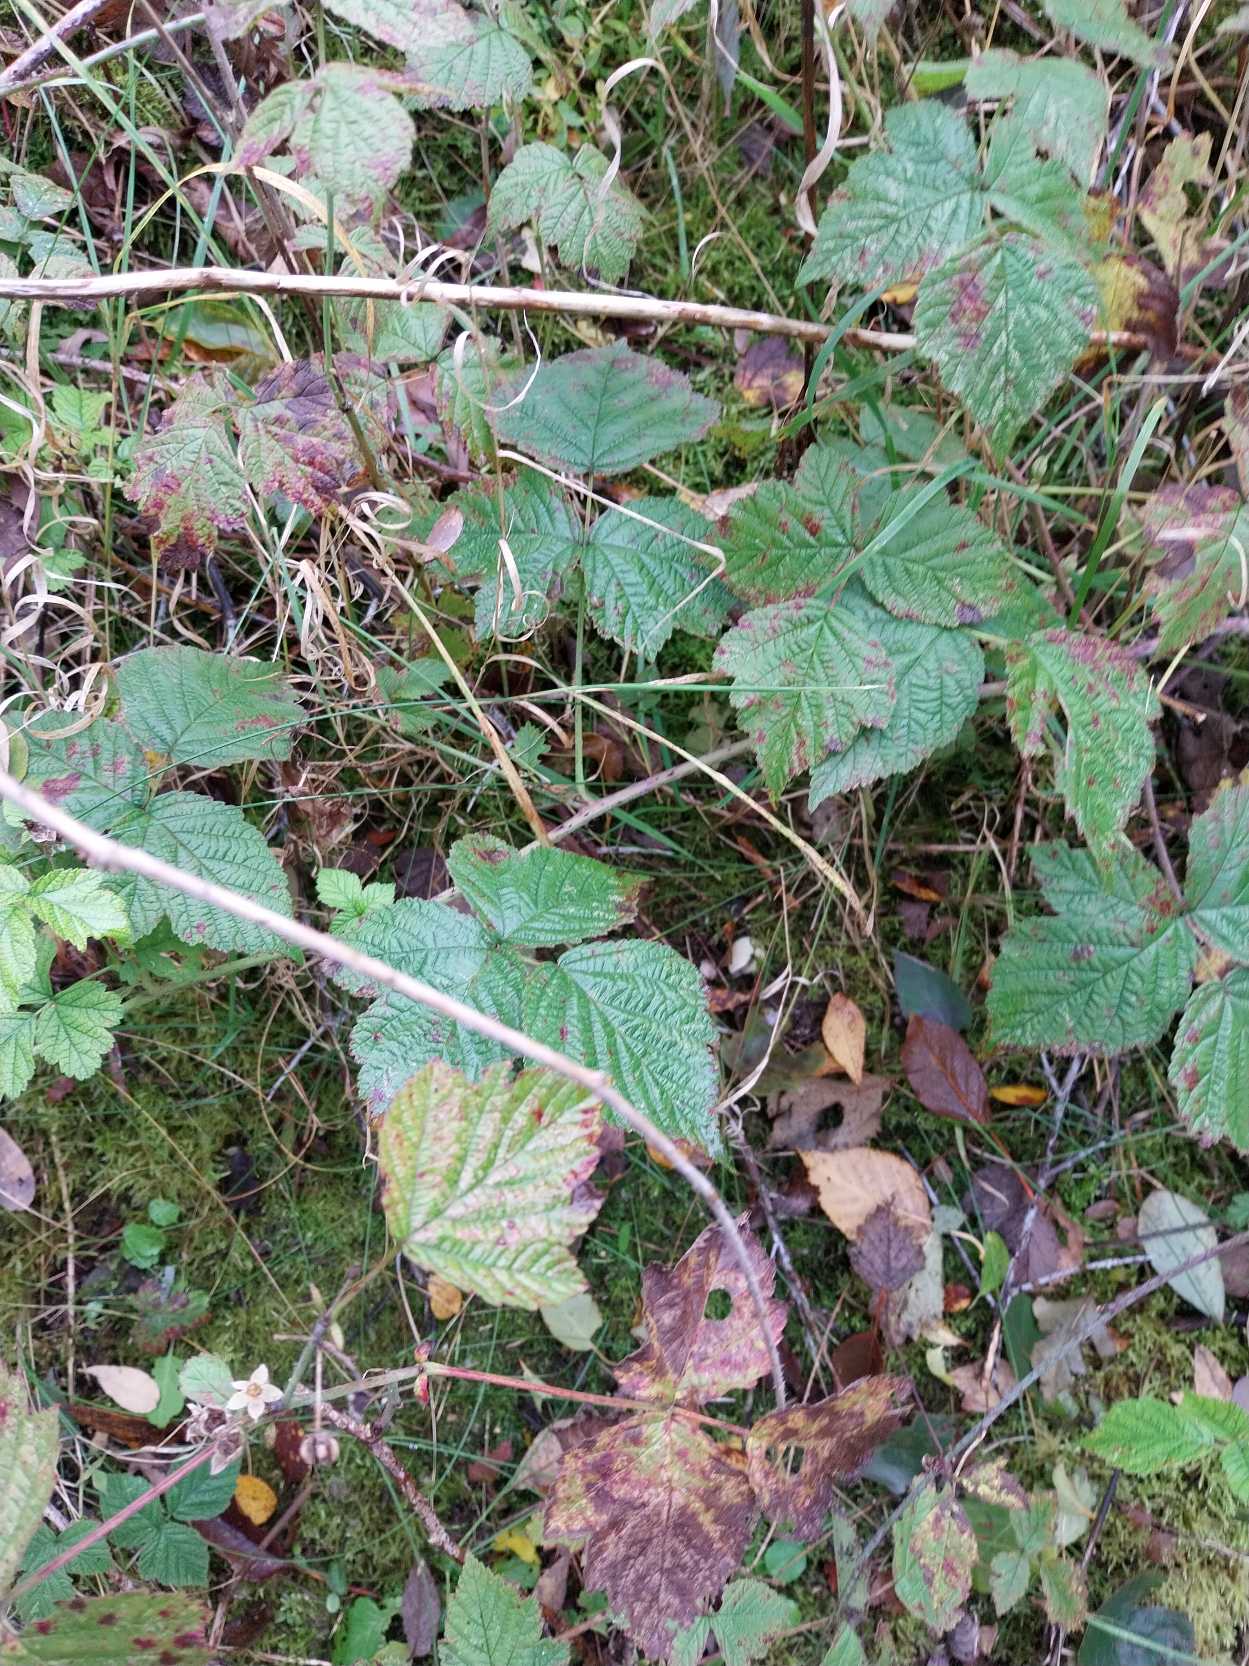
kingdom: Plantae
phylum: Tracheophyta
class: Magnoliopsida
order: Rosales
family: Rosaceae
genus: Rubus
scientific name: Rubus caesius
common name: Korbær
